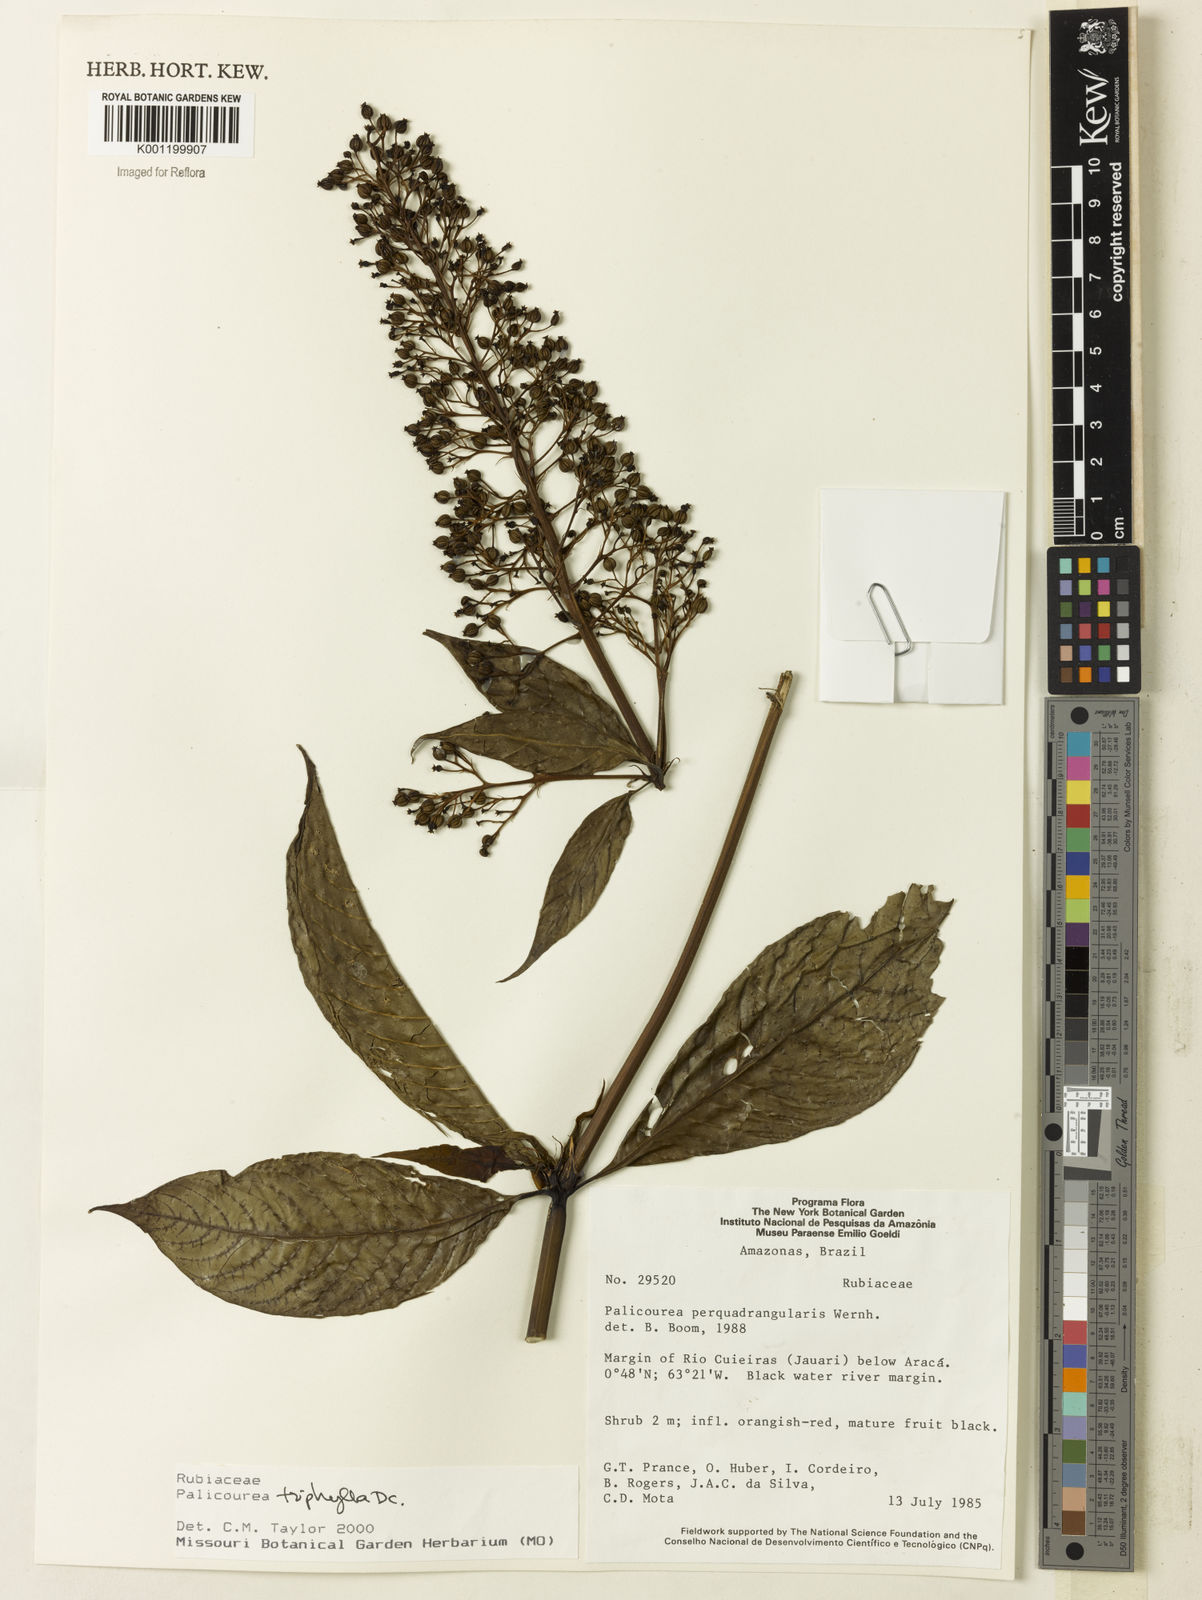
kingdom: Plantae
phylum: Tracheophyta
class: Magnoliopsida
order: Gentianales
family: Rubiaceae
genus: Palicourea
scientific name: Palicourea triphylla
